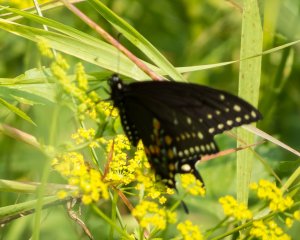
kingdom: Animalia
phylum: Arthropoda
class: Insecta
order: Lepidoptera
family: Papilionidae
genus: Papilio
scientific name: Papilio polyxenes
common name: Black Swallowtail
